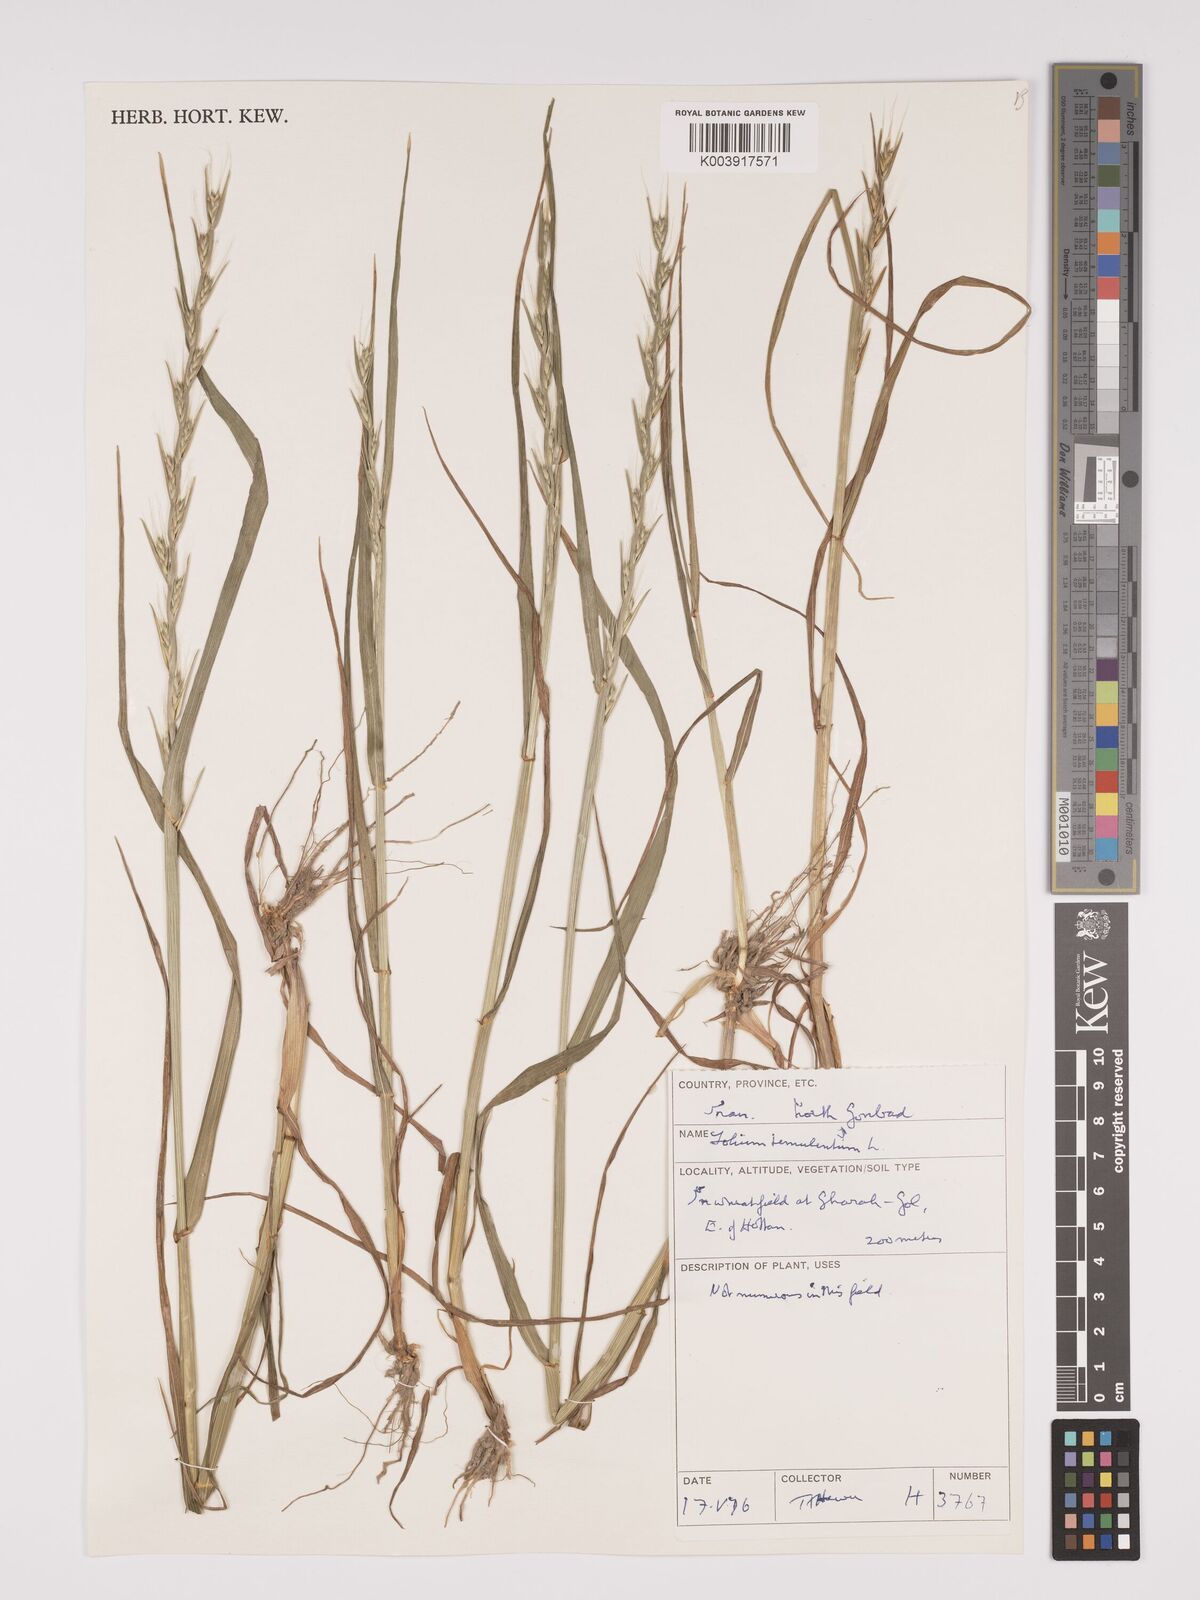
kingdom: Plantae
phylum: Tracheophyta
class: Liliopsida
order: Poales
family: Poaceae
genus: Lolium
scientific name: Lolium temulentum
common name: Darnel
